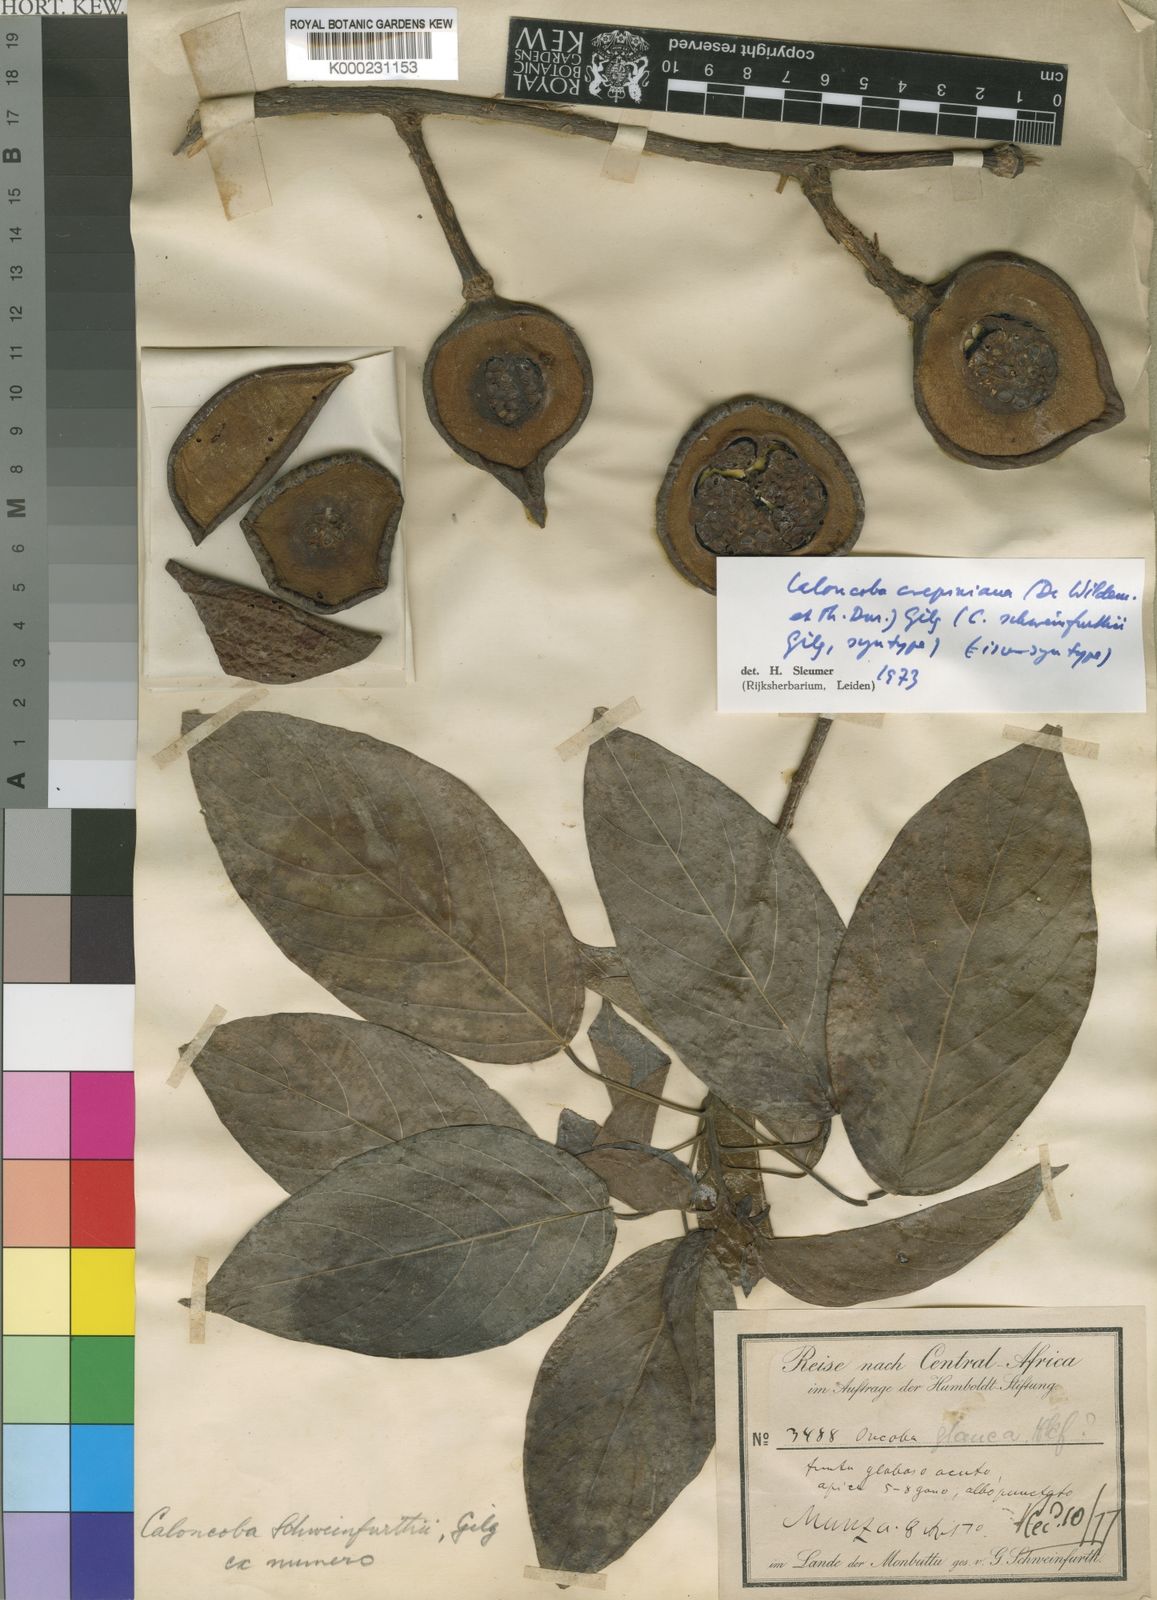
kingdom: Plantae
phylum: Tracheophyta
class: Magnoliopsida
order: Malpighiales
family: Achariaceae
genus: Caloncoba
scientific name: Caloncoba crepiniana
